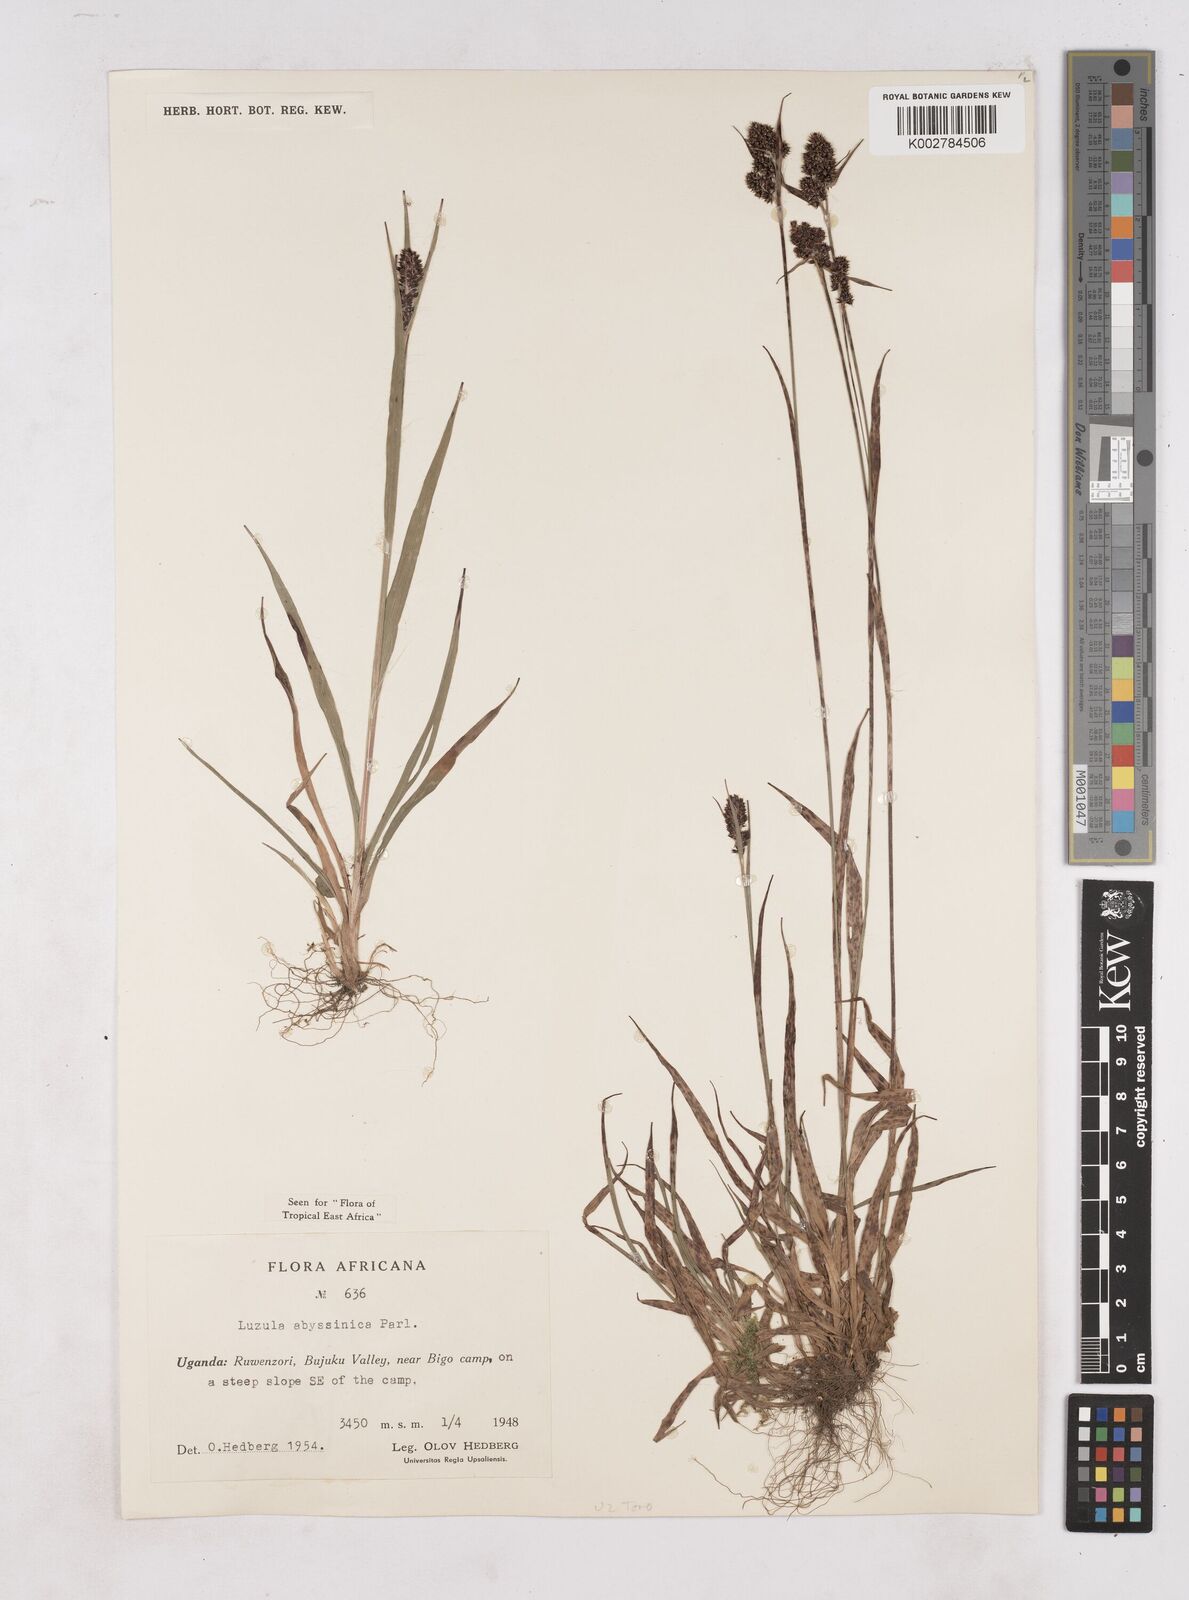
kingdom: Plantae
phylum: Tracheophyta
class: Liliopsida
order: Poales
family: Juncaceae
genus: Luzula
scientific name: Luzula abyssinica
